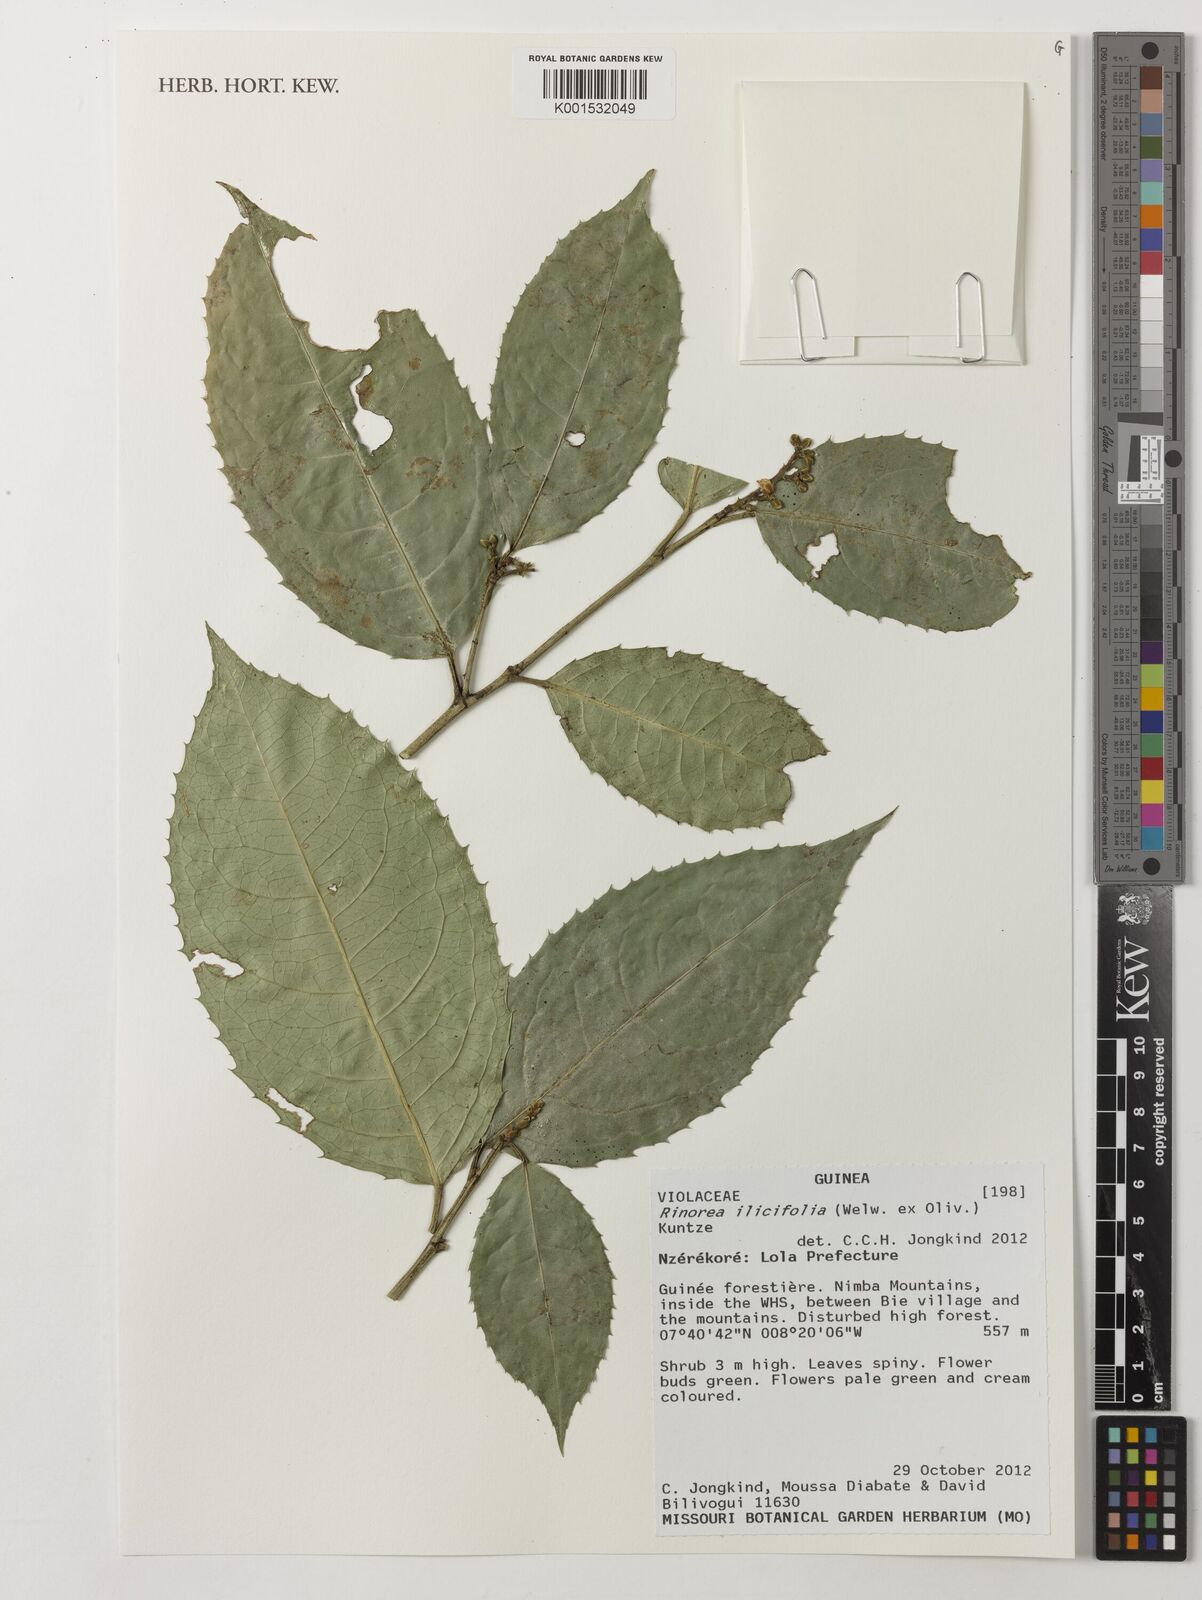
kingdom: Plantae
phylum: Tracheophyta
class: Magnoliopsida
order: Malpighiales
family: Violaceae
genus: Rinorea
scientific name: Rinorea bengalensis
